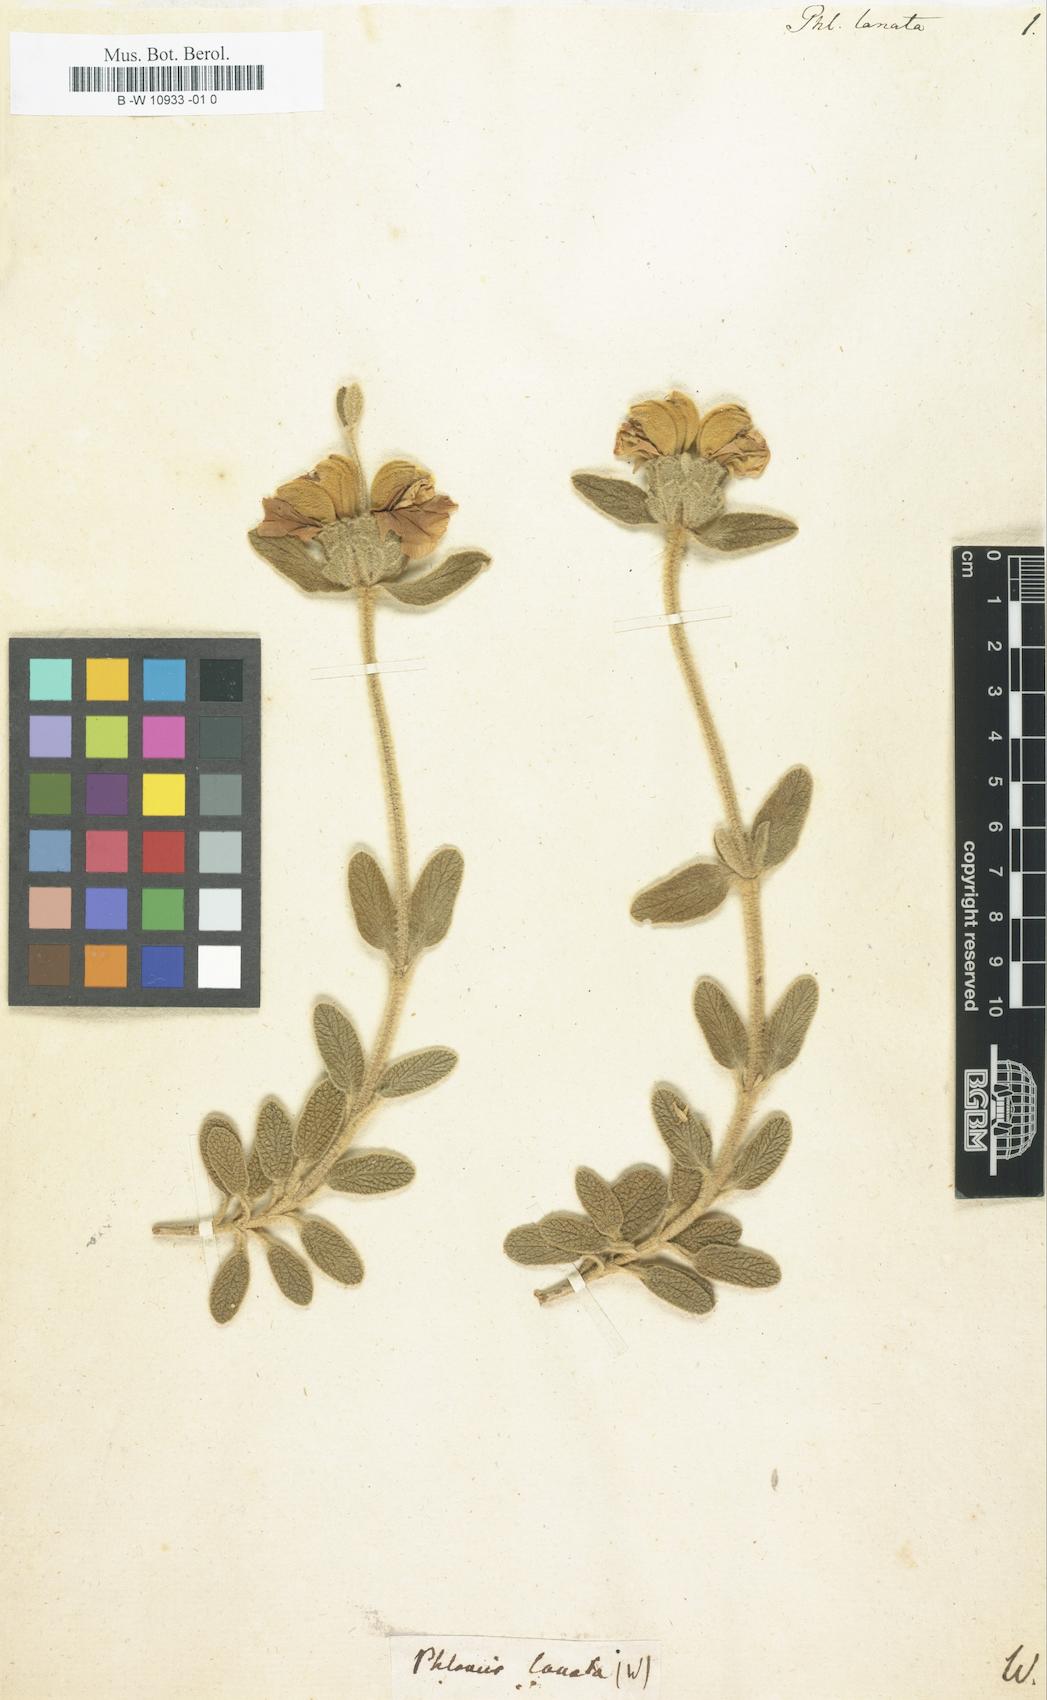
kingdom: Plantae
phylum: Tracheophyta
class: Magnoliopsida
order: Lamiales
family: Lamiaceae
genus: Phlomis
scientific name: Phlomis lanata
